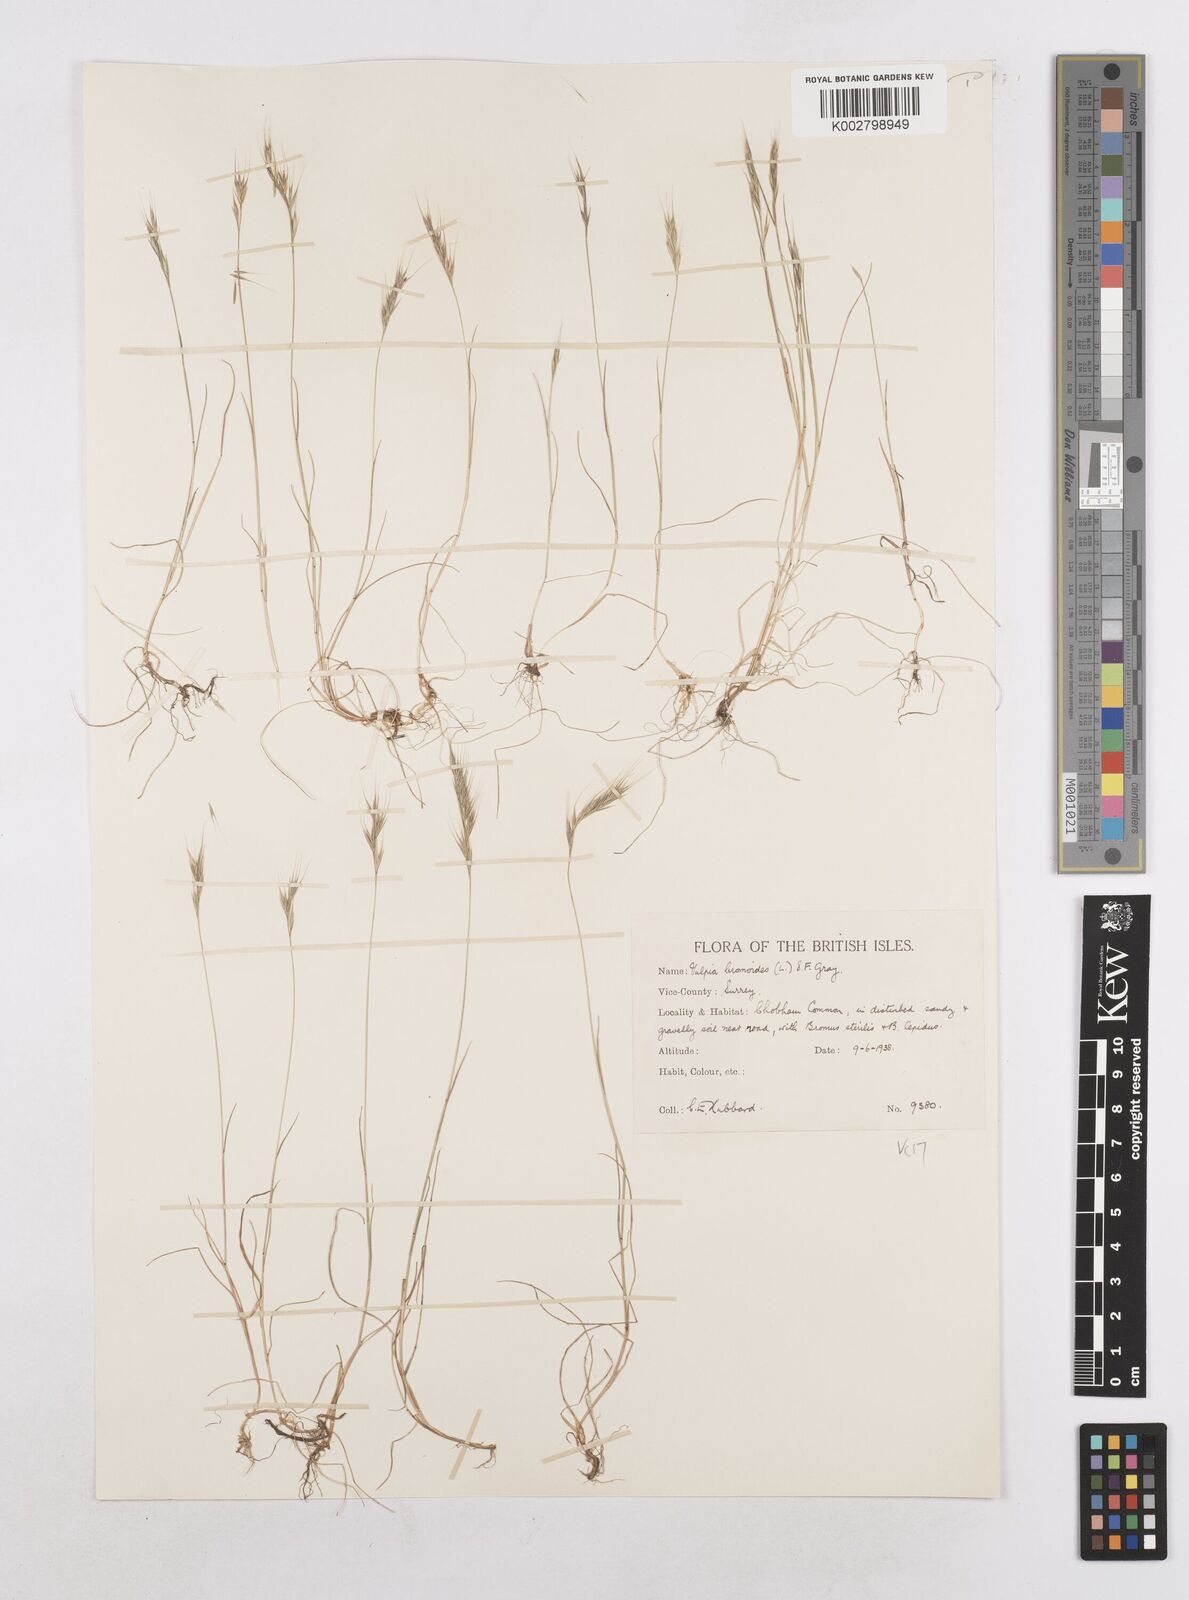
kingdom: Plantae
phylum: Tracheophyta
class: Liliopsida
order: Poales
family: Poaceae
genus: Festuca
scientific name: Festuca bromoides
